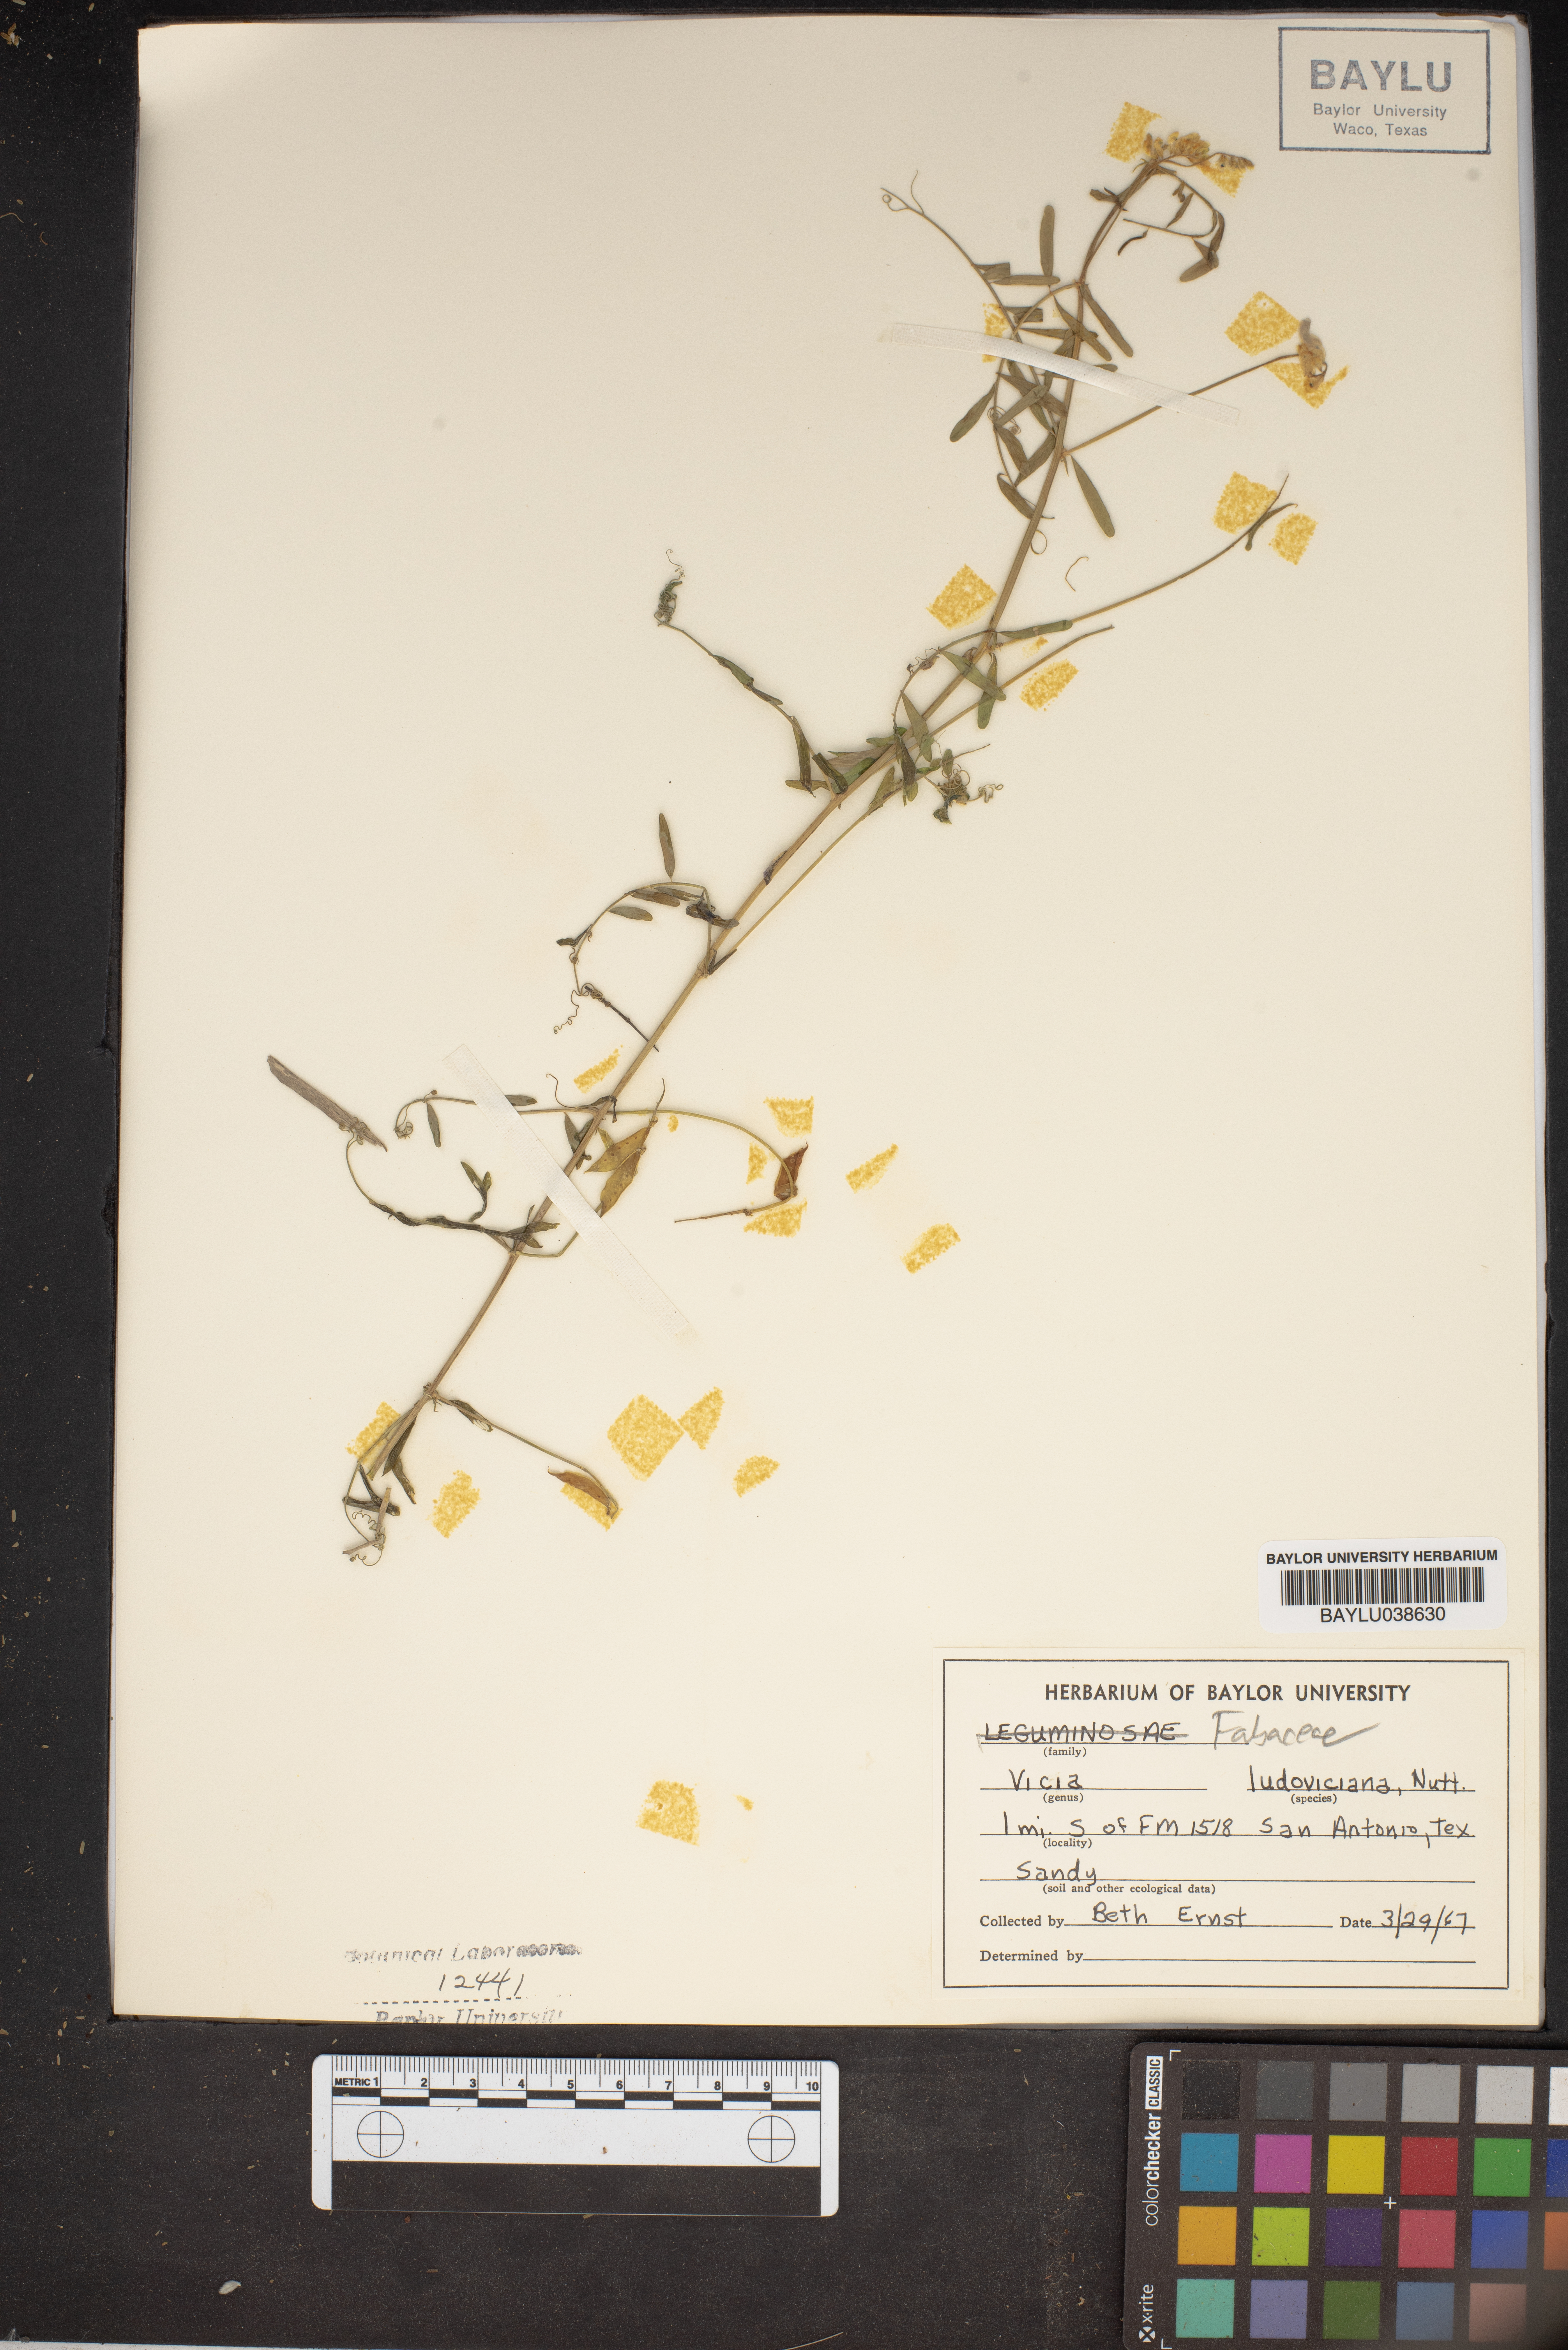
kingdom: Plantae
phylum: Tracheophyta
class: Magnoliopsida
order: Fabales
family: Fabaceae
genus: Vicia
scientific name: Vicia ludoviciana
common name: Louisiana vetch
